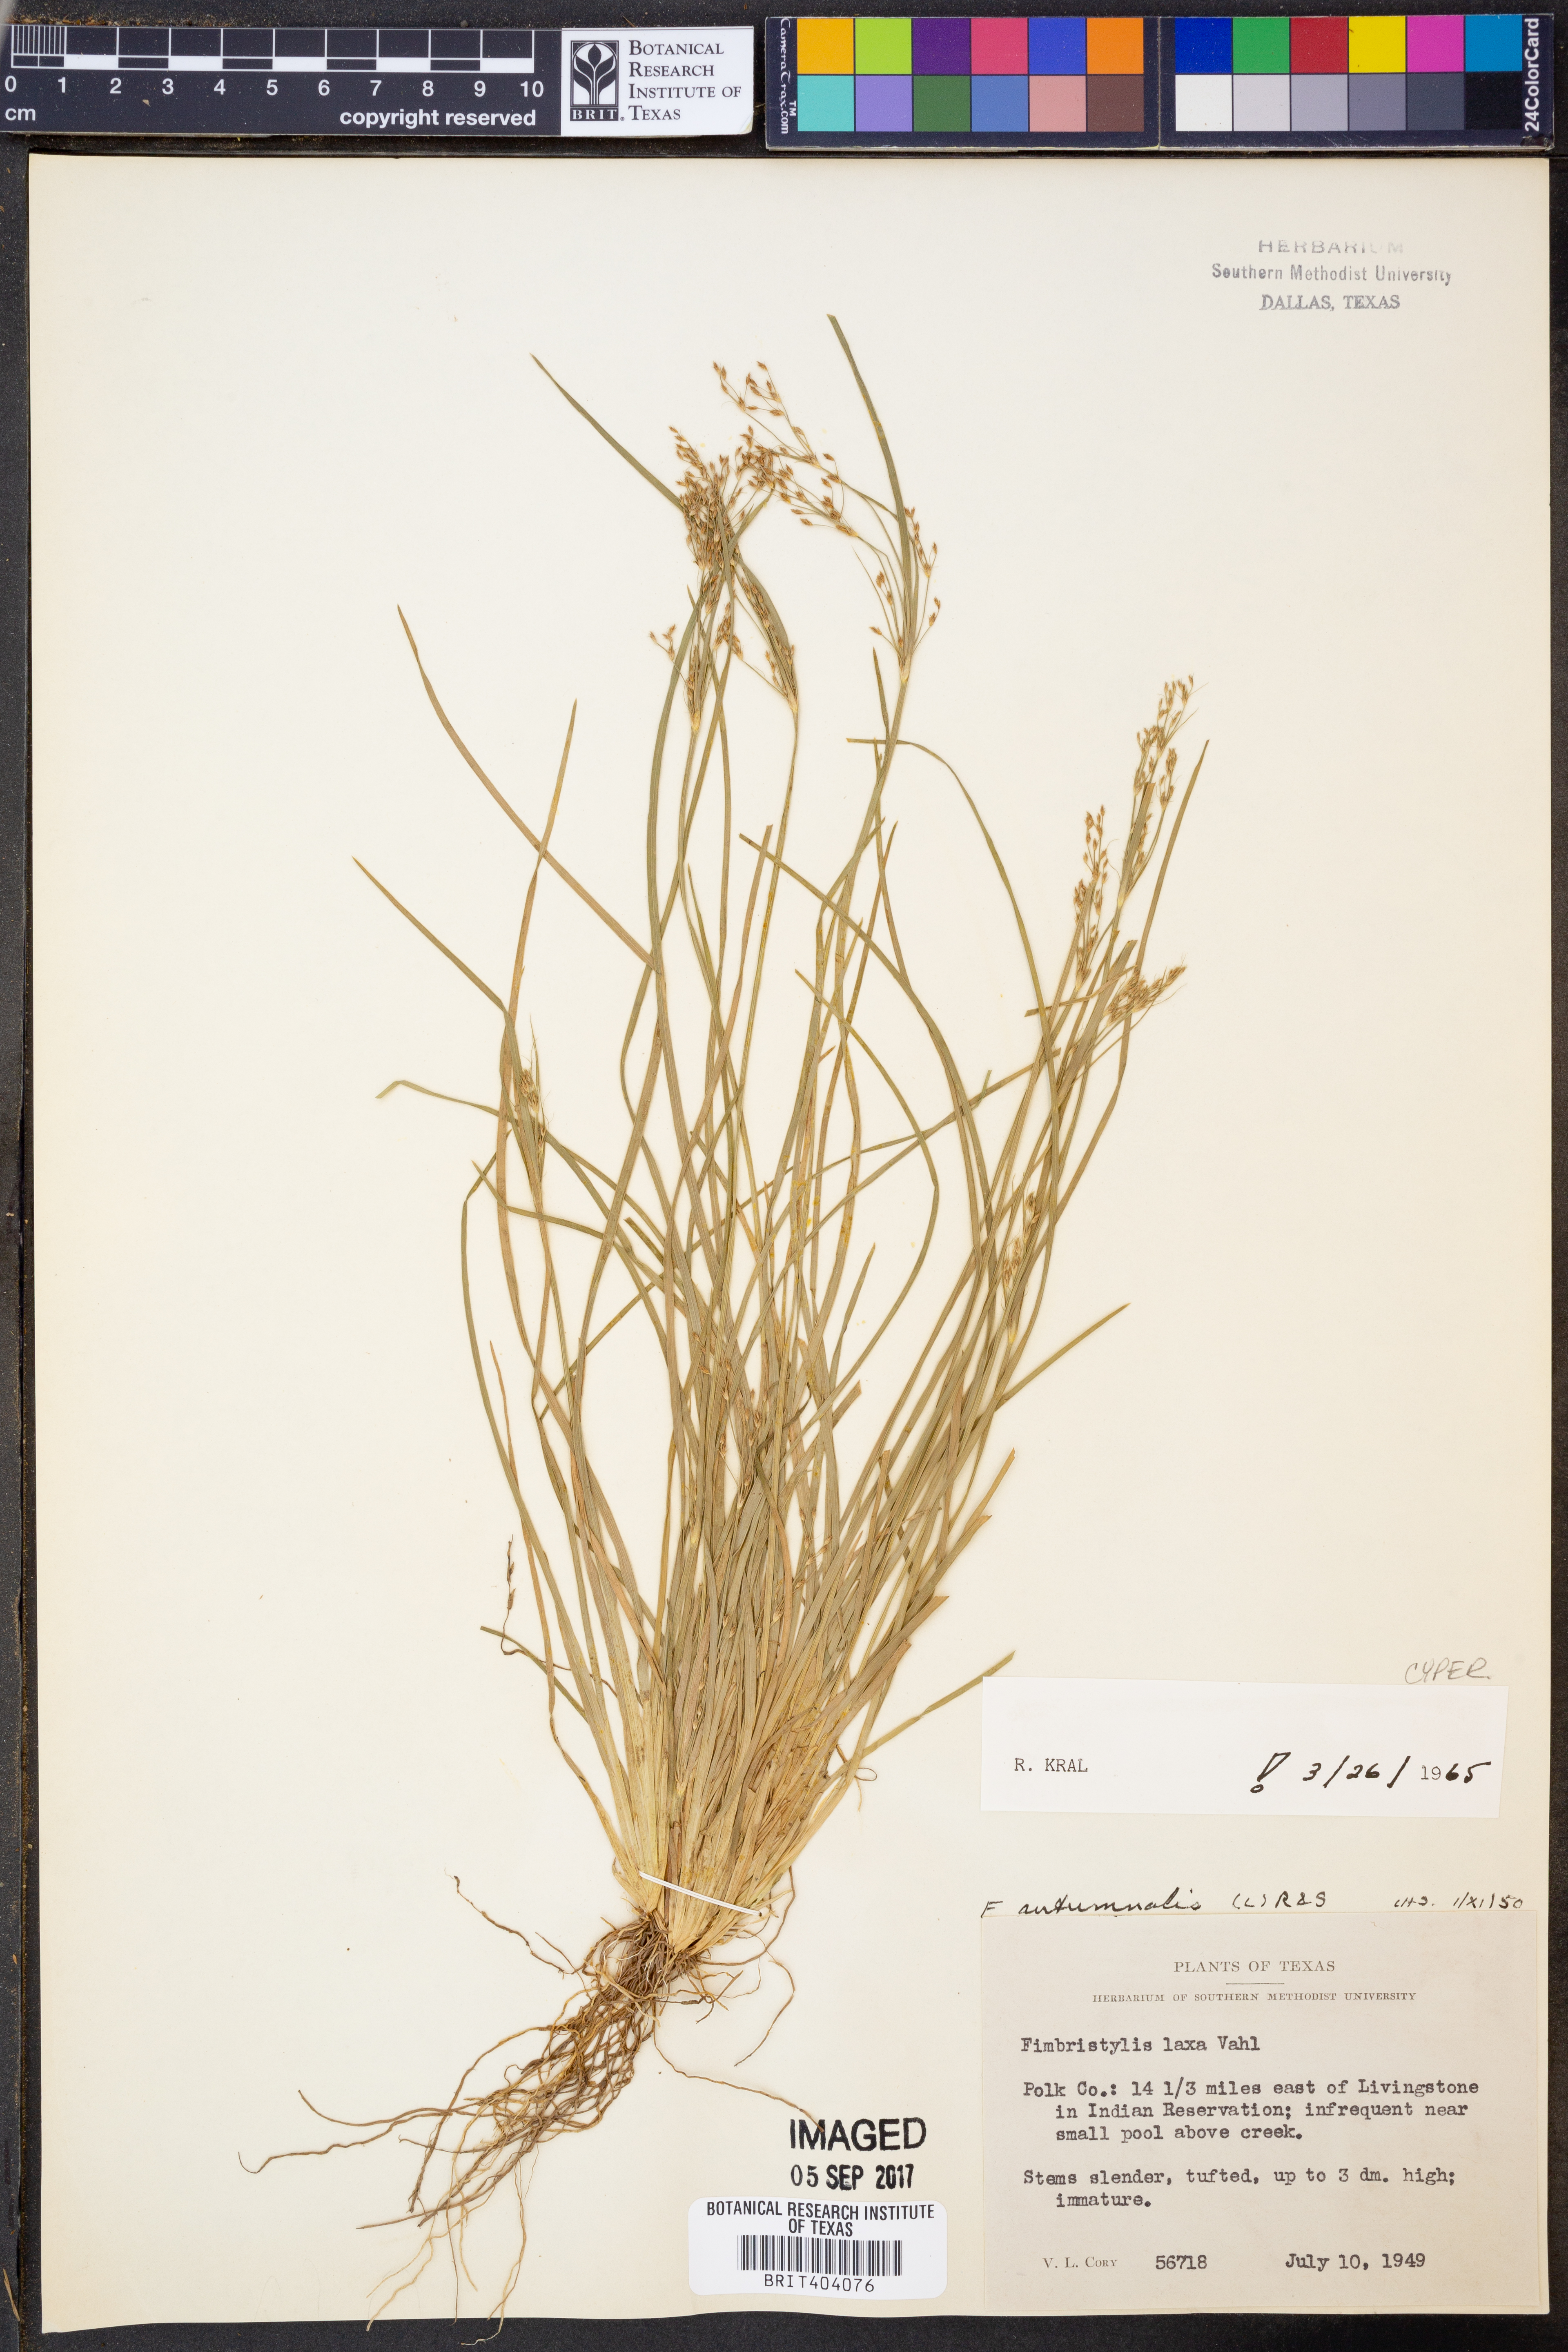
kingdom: Plantae
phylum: Tracheophyta
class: Liliopsida
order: Poales
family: Cyperaceae
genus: Fimbristylis
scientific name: Fimbristylis autumnalis
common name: Slender fimbristylis
